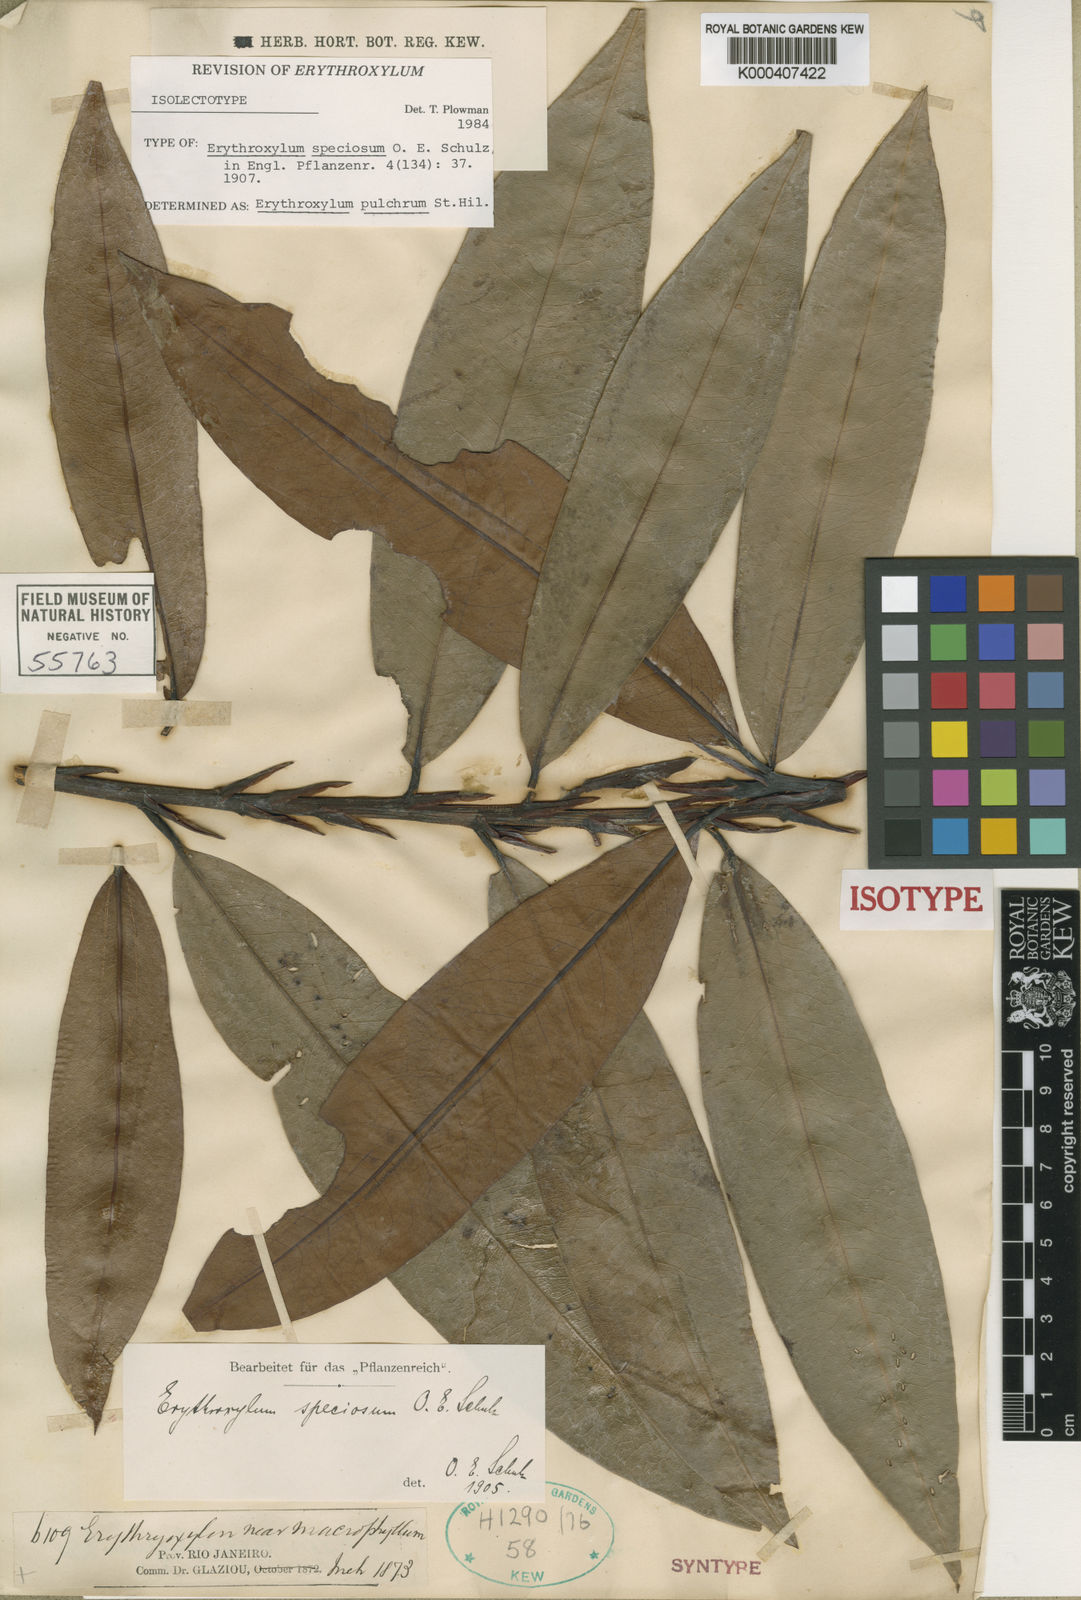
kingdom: Plantae
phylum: Tracheophyta
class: Magnoliopsida
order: Malpighiales
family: Erythroxylaceae
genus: Erythroxylum
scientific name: Erythroxylum pulchrum
